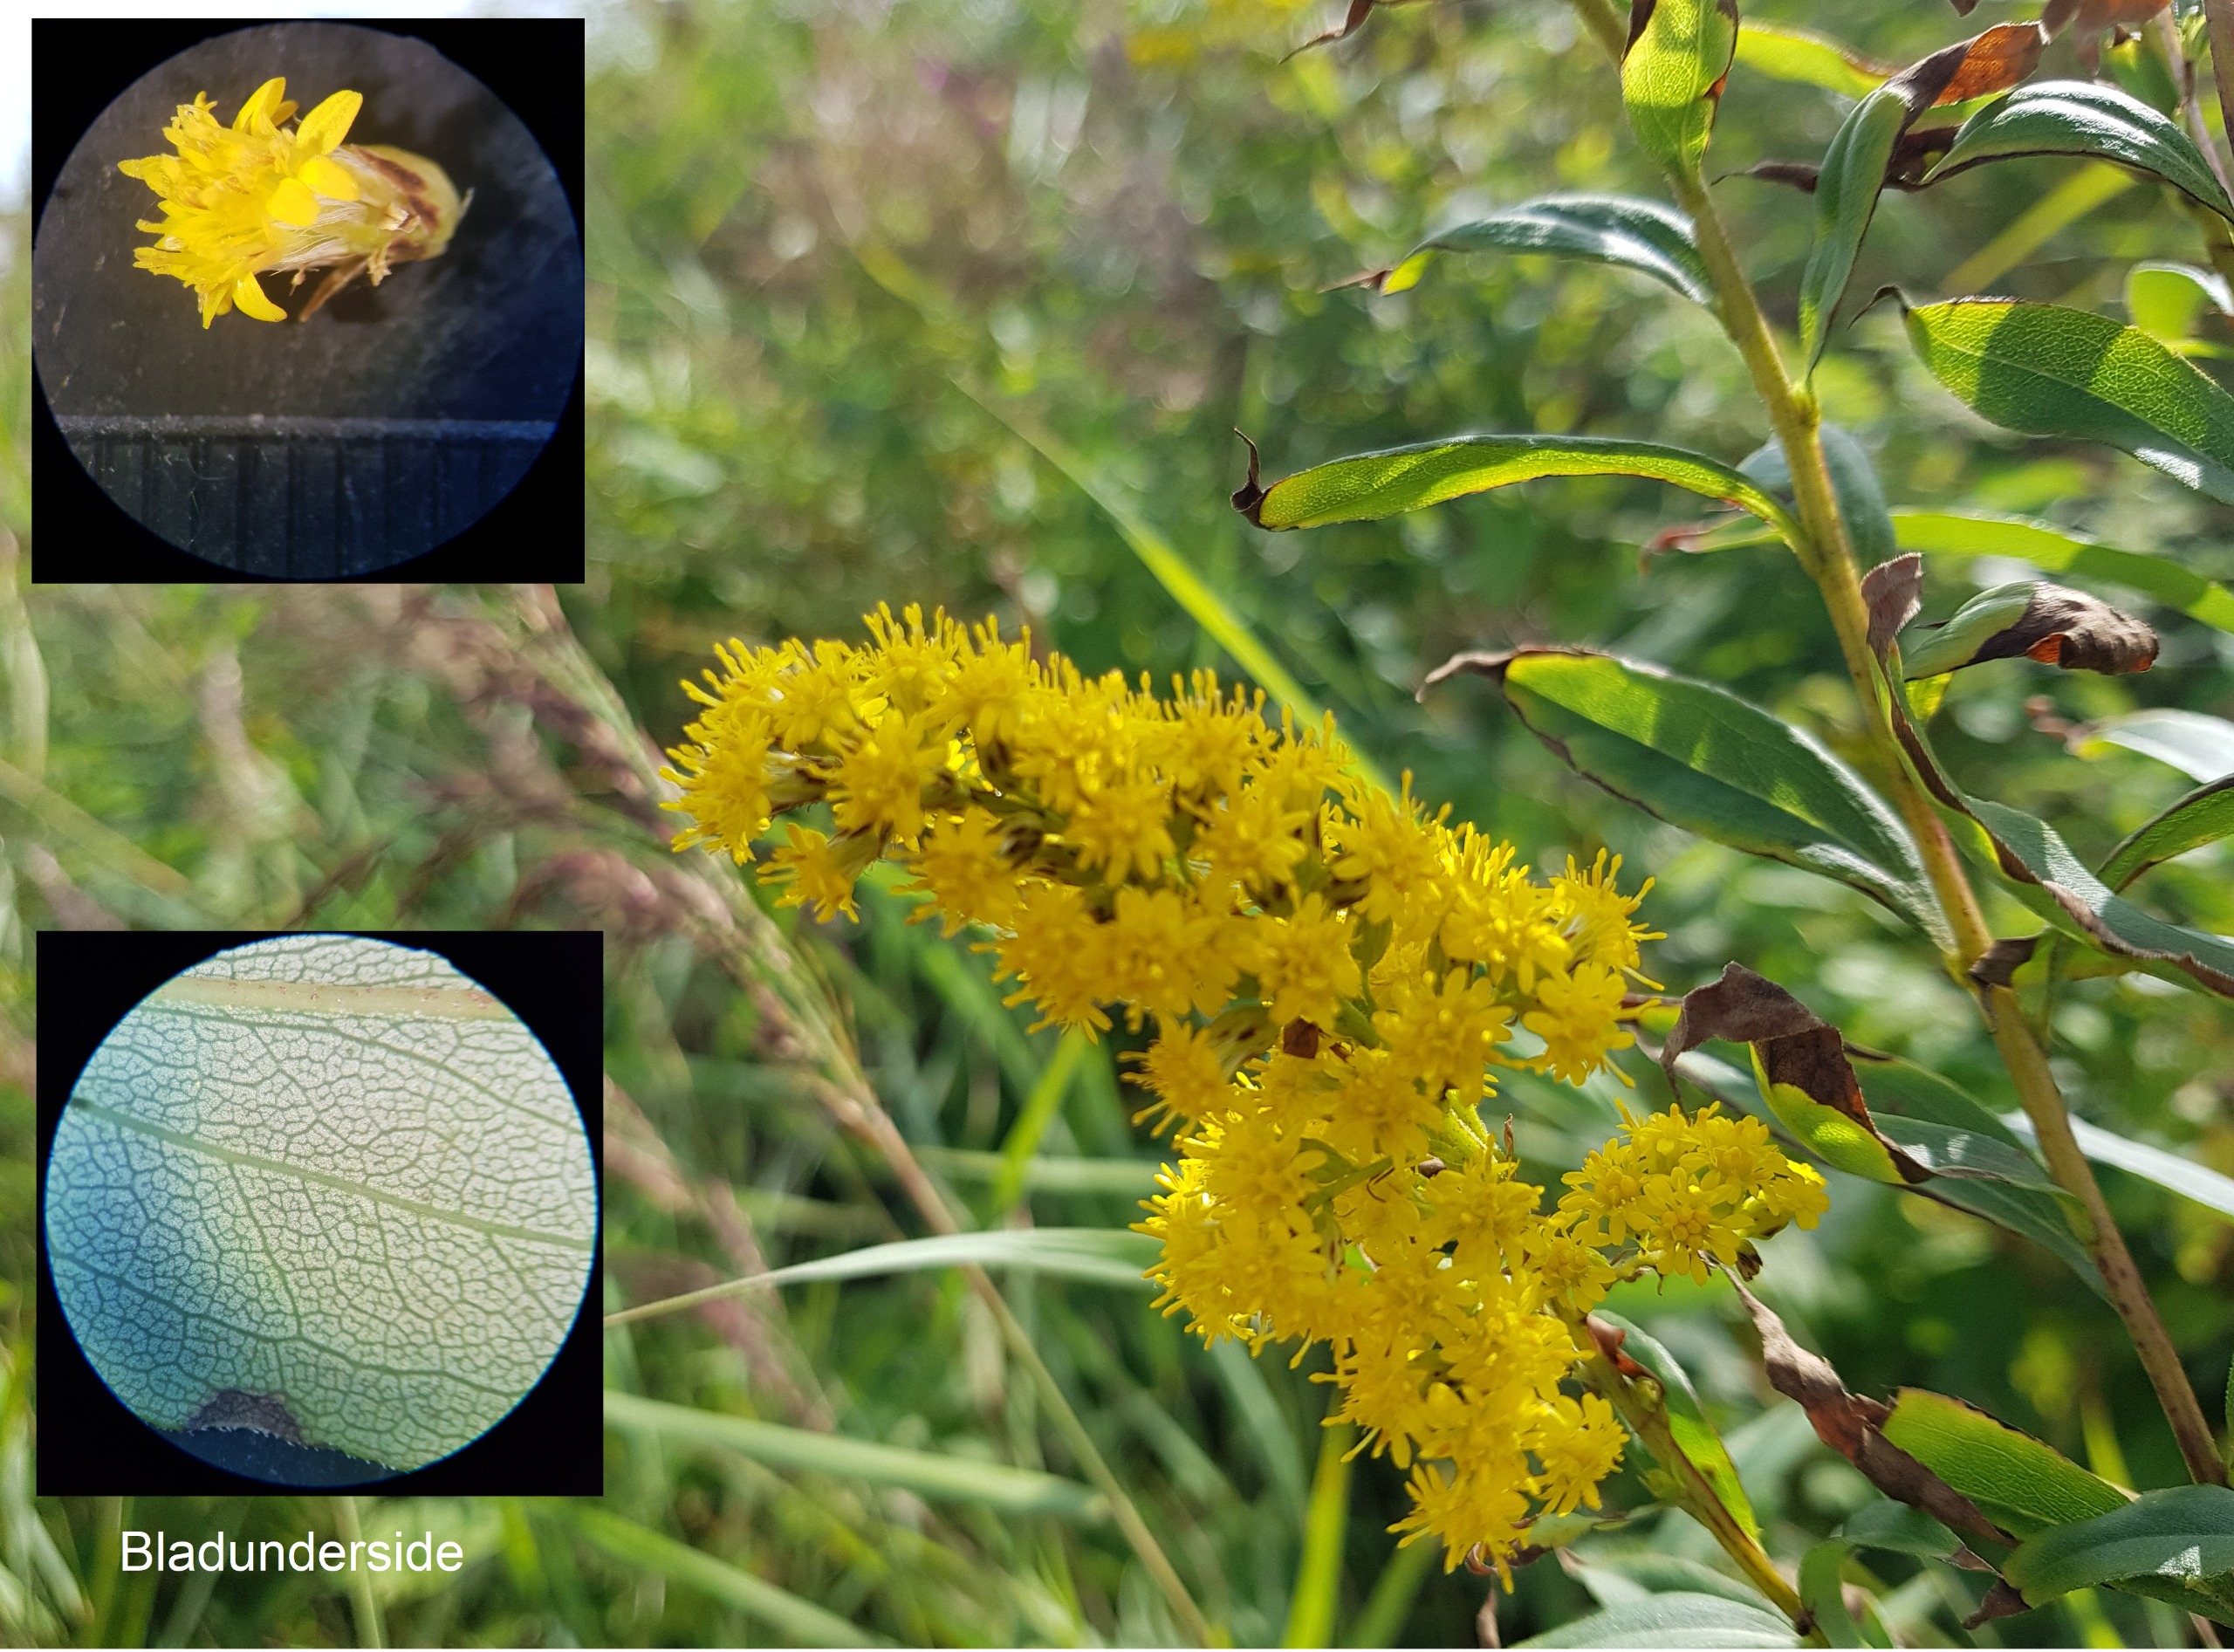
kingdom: Plantae
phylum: Tracheophyta
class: Magnoliopsida
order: Asterales
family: Asteraceae
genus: Solidago
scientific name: Solidago gigantea
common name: Sildig gyldenris
